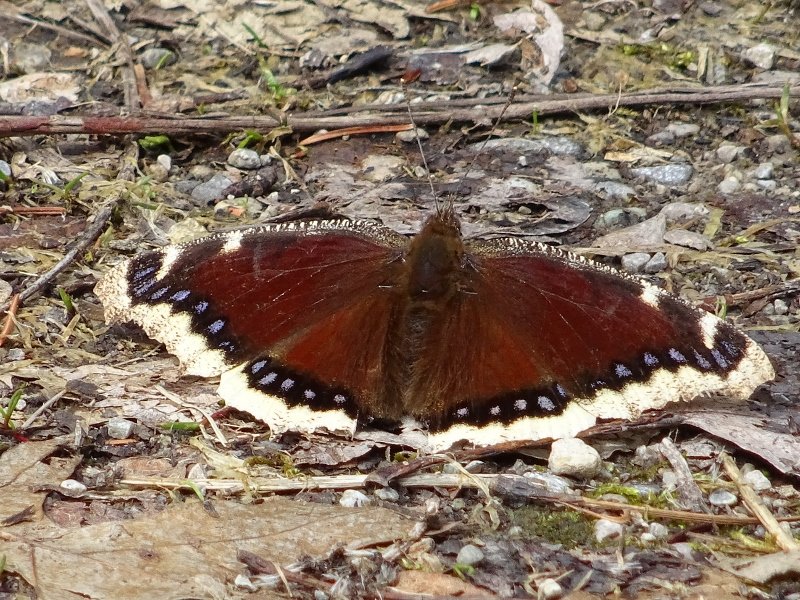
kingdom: Animalia
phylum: Arthropoda
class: Insecta
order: Lepidoptera
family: Nymphalidae
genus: Nymphalis
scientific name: Nymphalis antiopa
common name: Mourning Cloak
